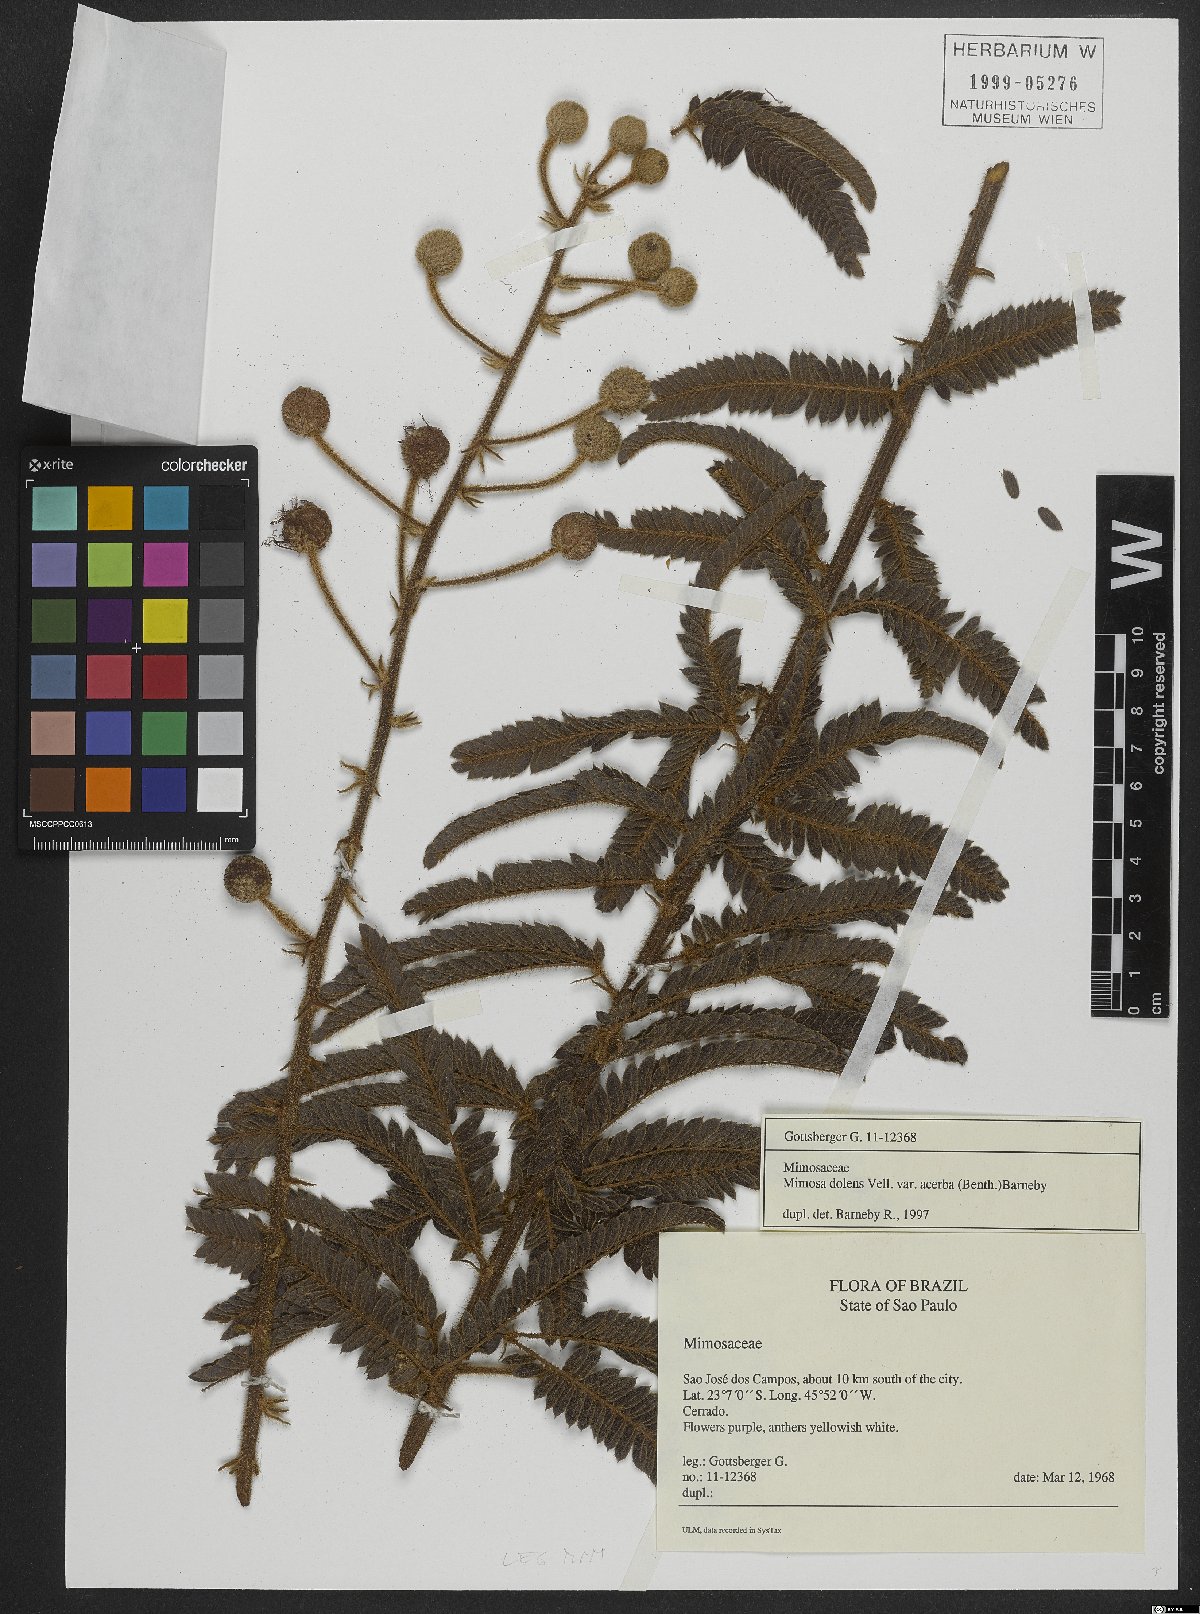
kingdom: Plantae
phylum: Tracheophyta
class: Magnoliopsida
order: Fabales
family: Fabaceae
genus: Mimosa
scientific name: Mimosa dolens
